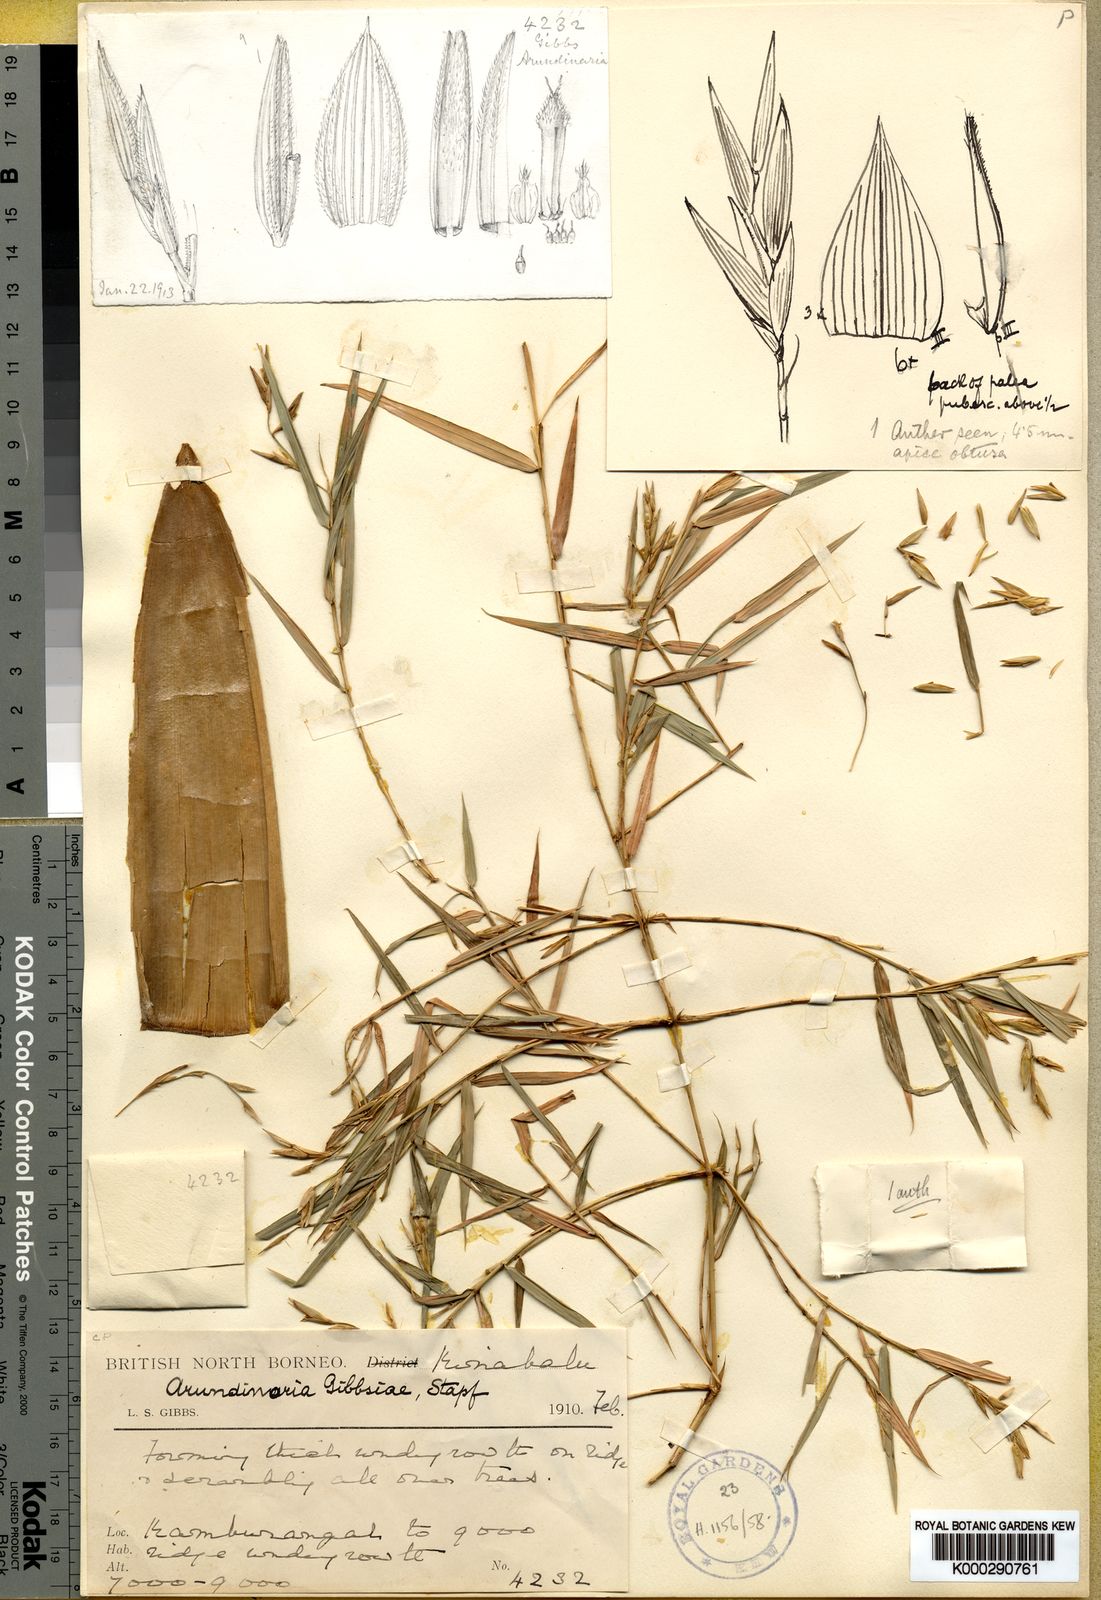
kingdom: Plantae
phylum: Tracheophyta
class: Liliopsida
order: Poales
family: Poaceae
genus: Racemobambos
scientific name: Racemobambos gibbsiae
